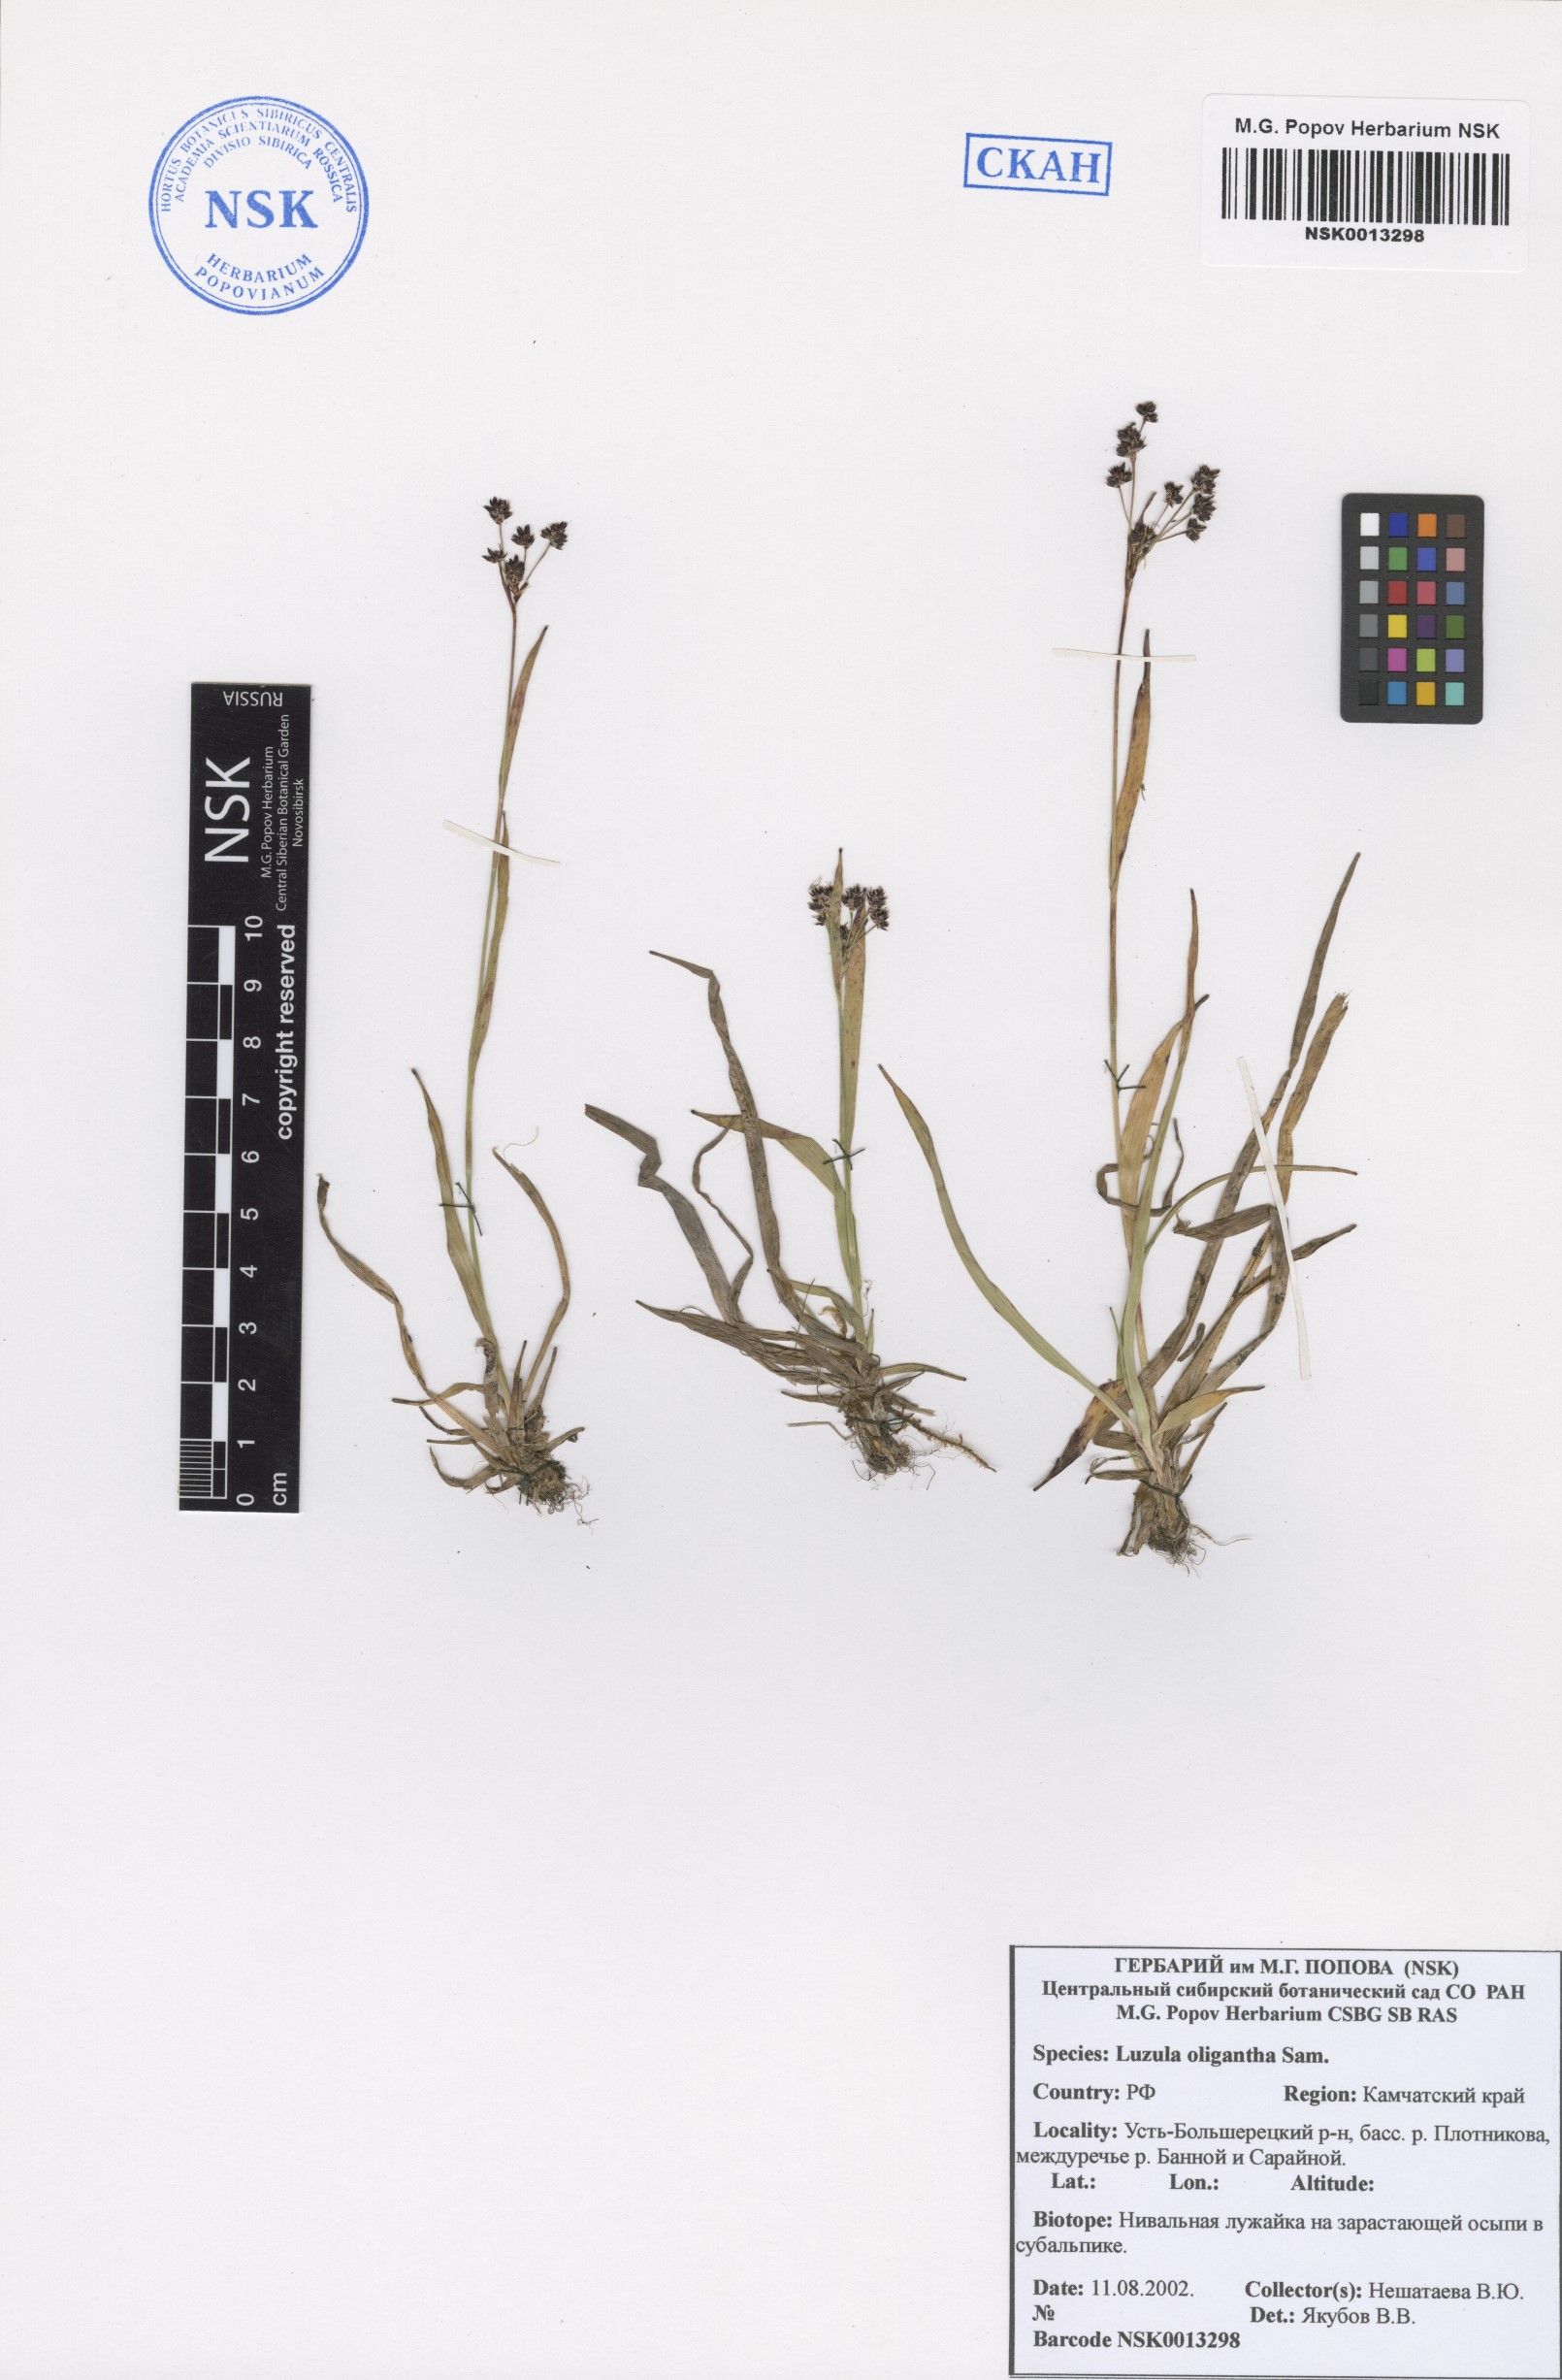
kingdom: Plantae
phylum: Tracheophyta
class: Liliopsida
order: Poales
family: Juncaceae
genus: Luzula
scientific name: Luzula oligantha
